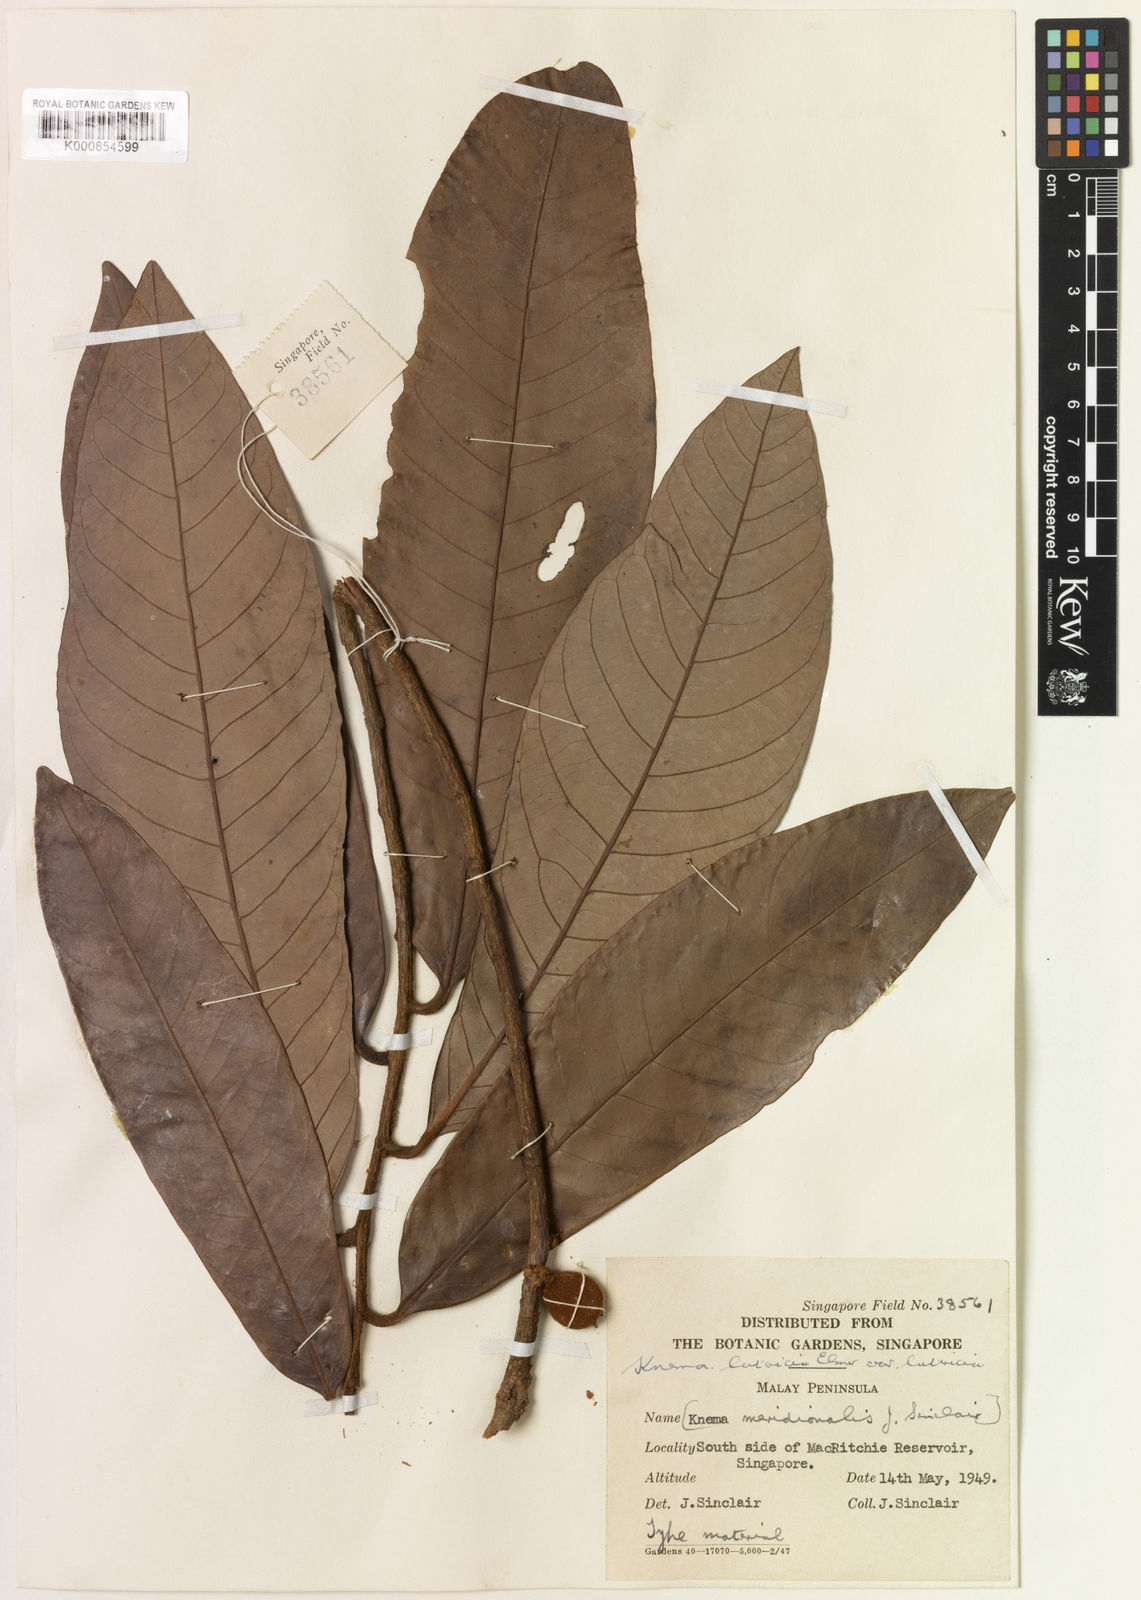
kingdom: Plantae
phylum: Tracheophyta
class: Magnoliopsida
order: Magnoliales
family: Myristicaceae
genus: Knema
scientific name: Knema latericia
